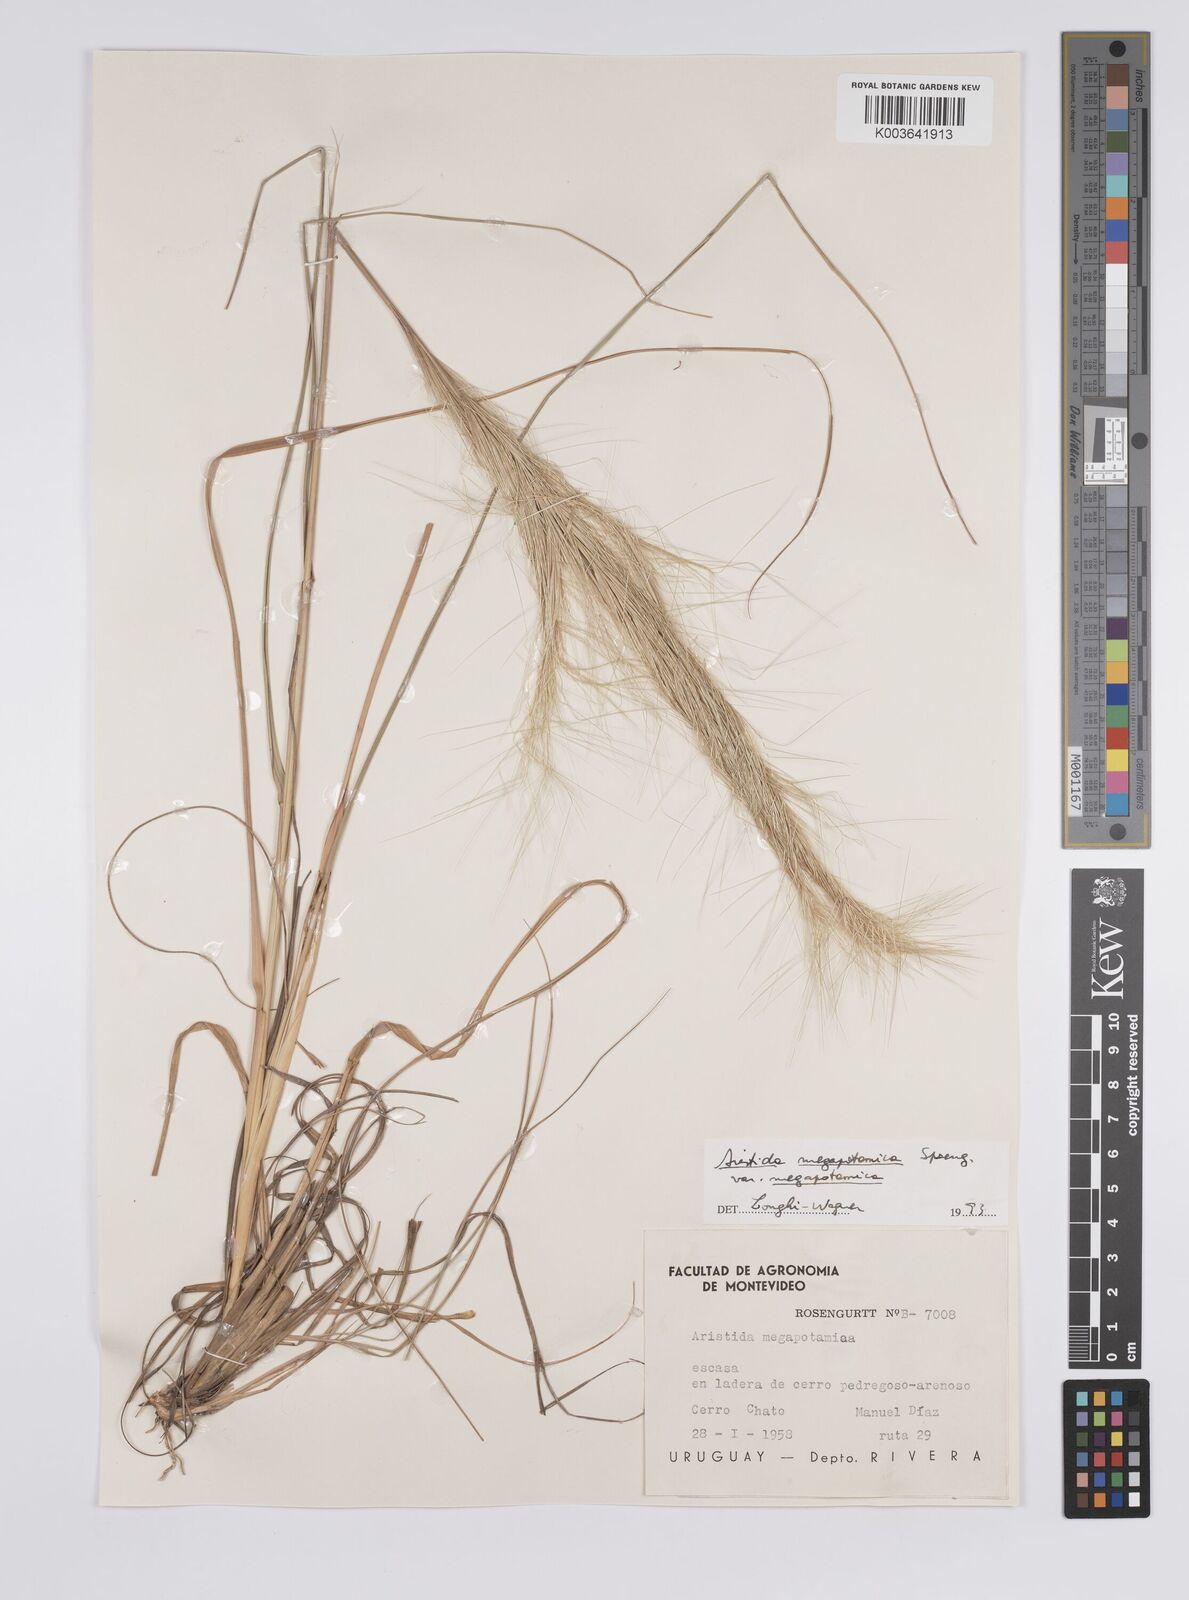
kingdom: Plantae
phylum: Tracheophyta
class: Liliopsida
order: Poales
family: Poaceae
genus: Aristida
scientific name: Aristida megapotamica
